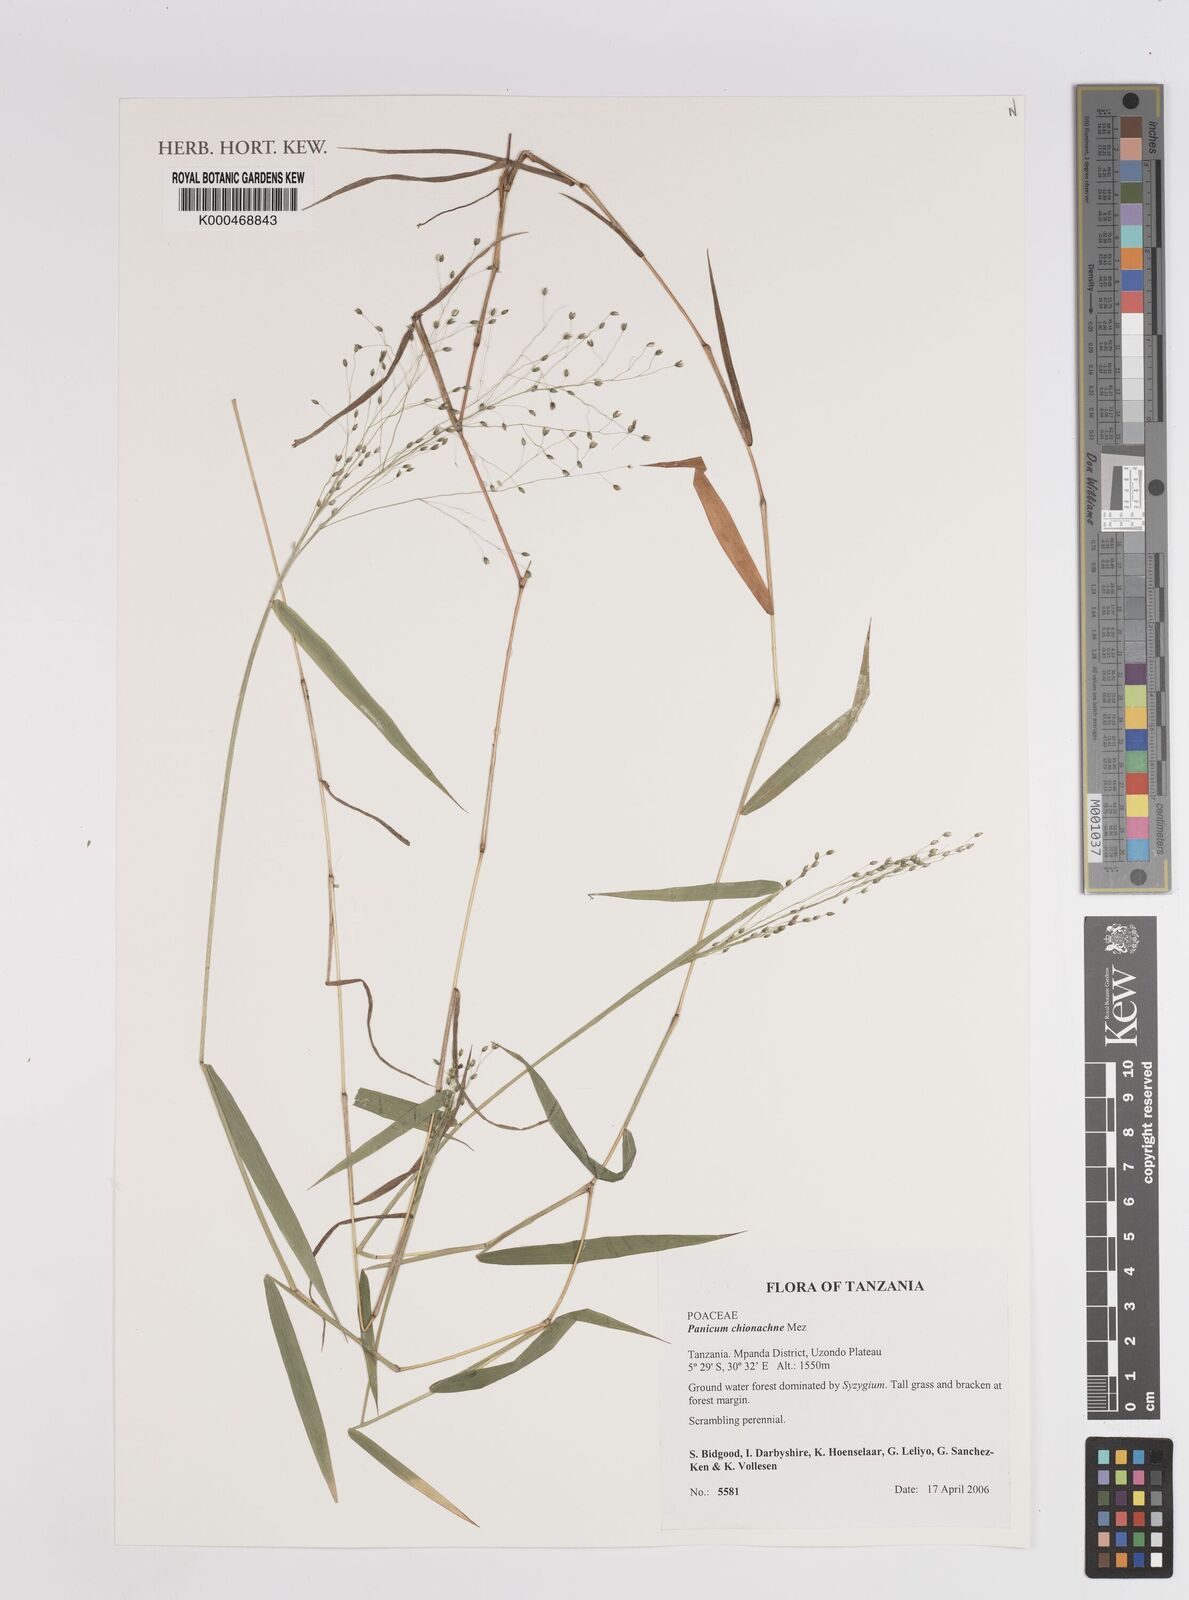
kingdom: Plantae
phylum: Tracheophyta
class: Liliopsida
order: Poales
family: Poaceae
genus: Panicum
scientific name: Panicum chionachne
